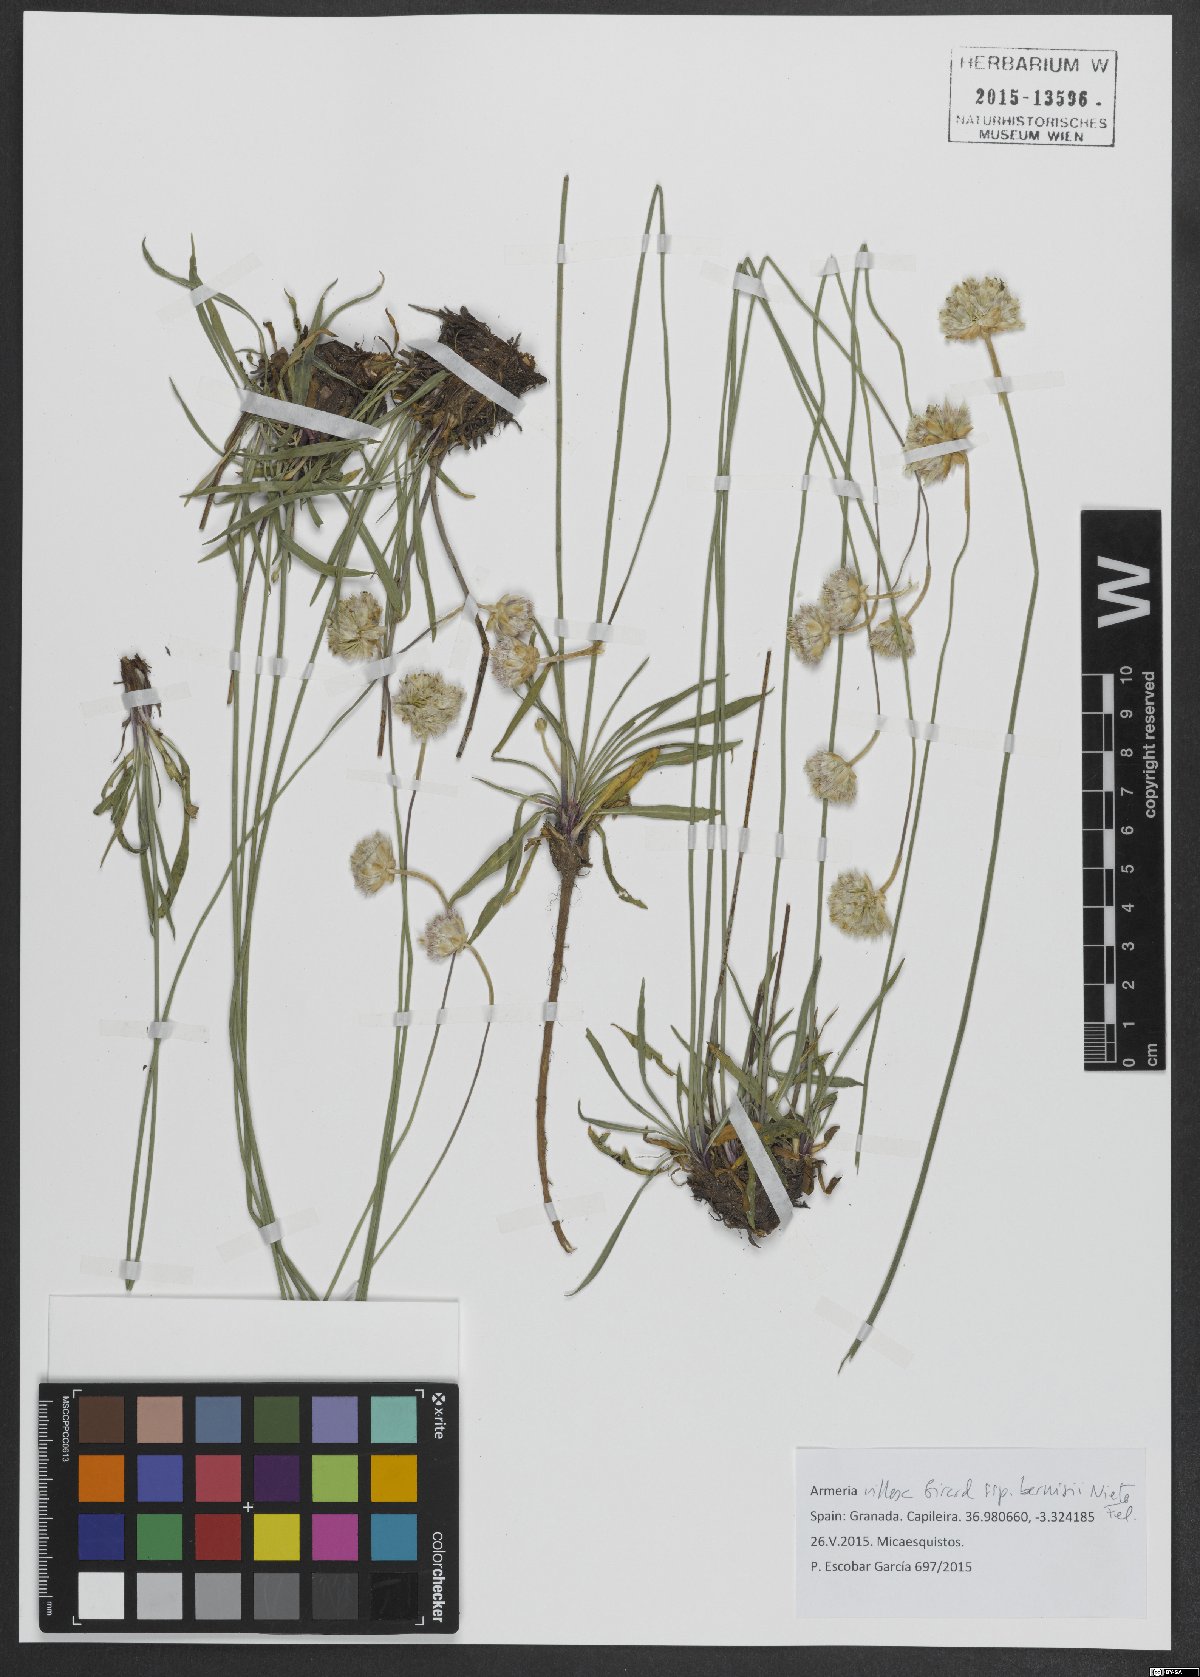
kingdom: Plantae
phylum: Tracheophyta
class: Magnoliopsida
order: Caryophyllales
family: Plumbaginaceae
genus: Armeria
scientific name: Armeria villosa
